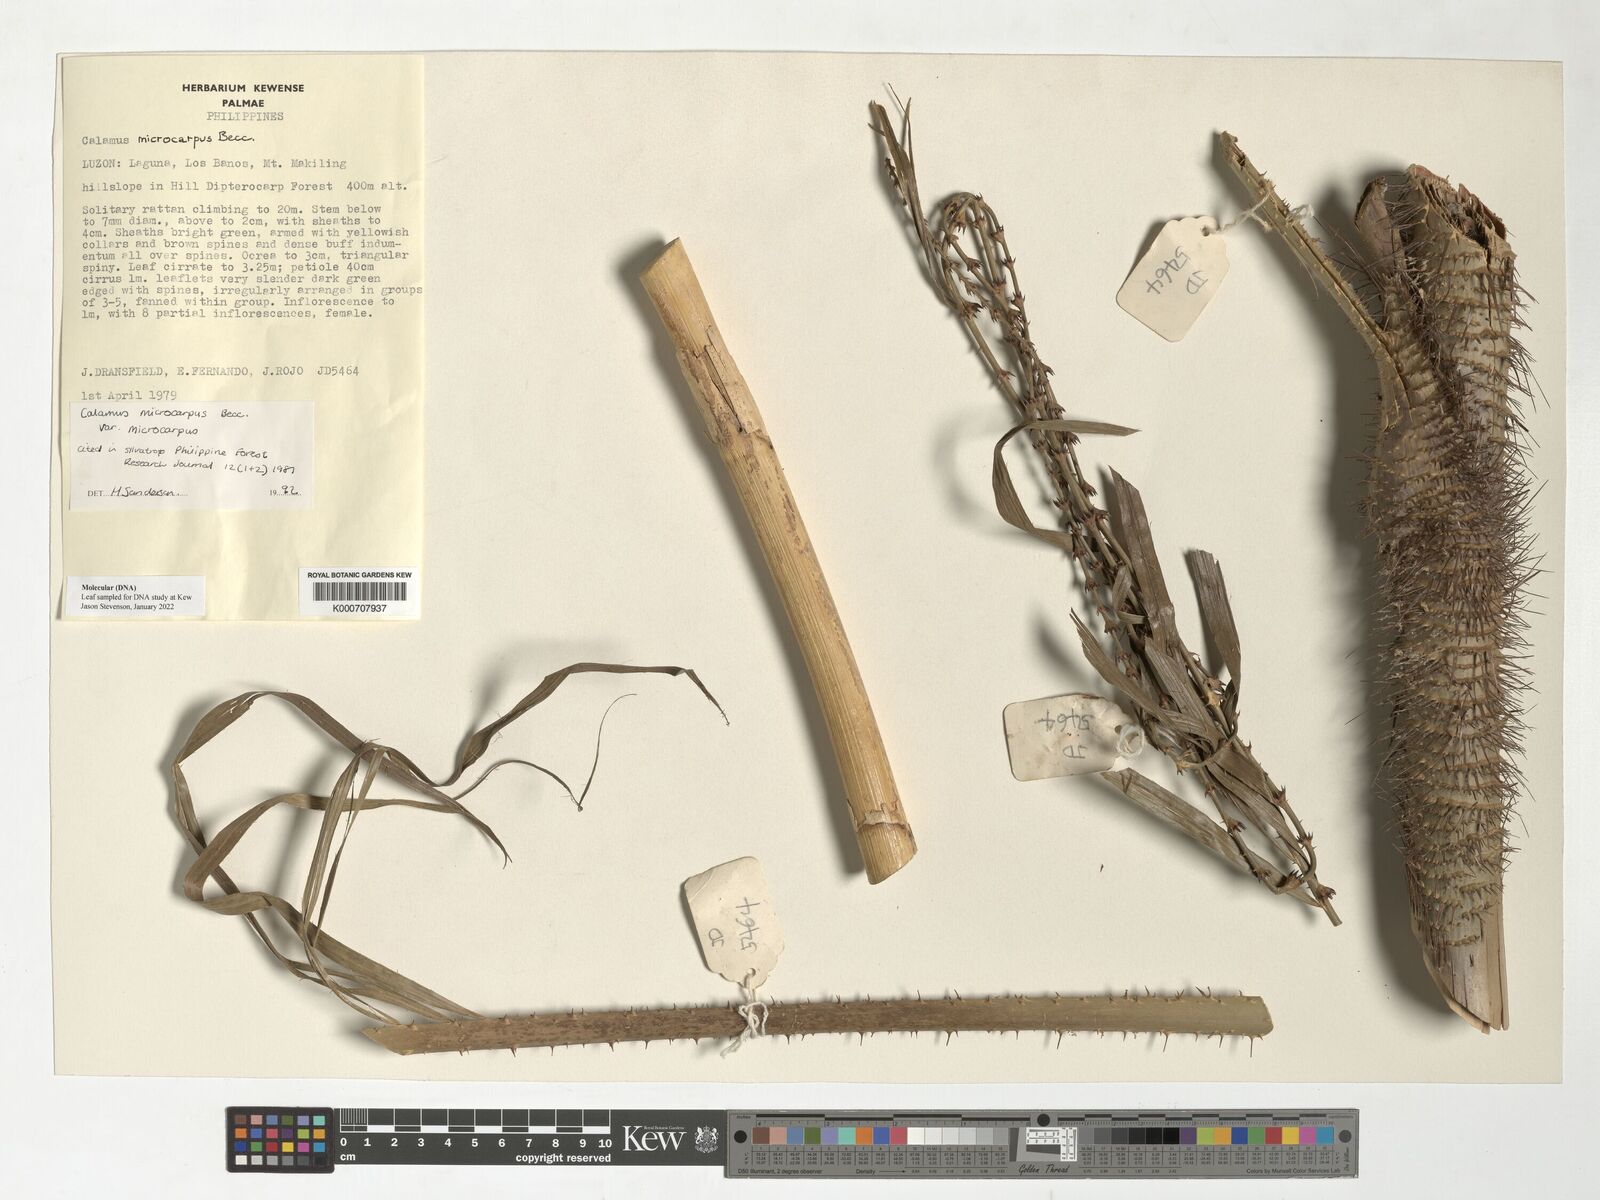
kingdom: Plantae
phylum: Tracheophyta
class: Liliopsida
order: Arecales
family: Arecaceae
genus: Calamus
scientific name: Calamus siphonospathus
